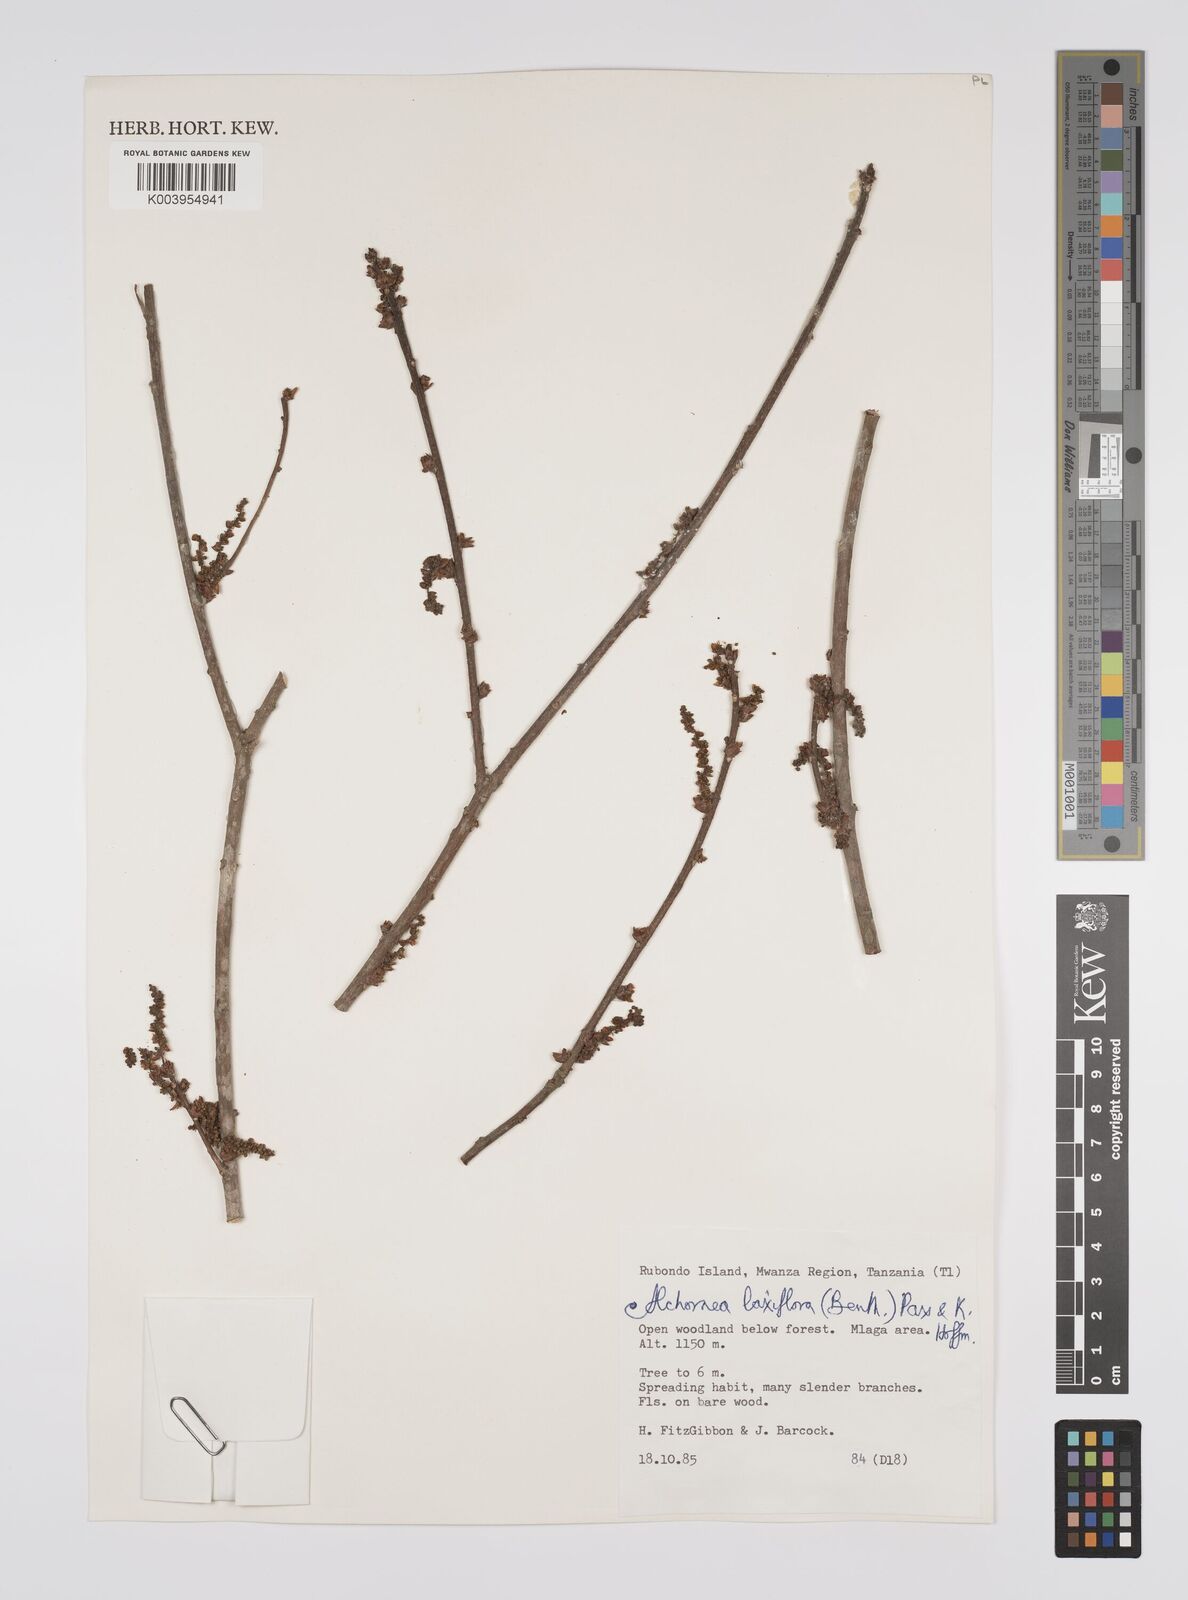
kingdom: Plantae
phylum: Tracheophyta
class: Magnoliopsida
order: Malpighiales
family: Euphorbiaceae
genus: Alchornea
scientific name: Alchornea laxiflora
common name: Lowveld bead-string
